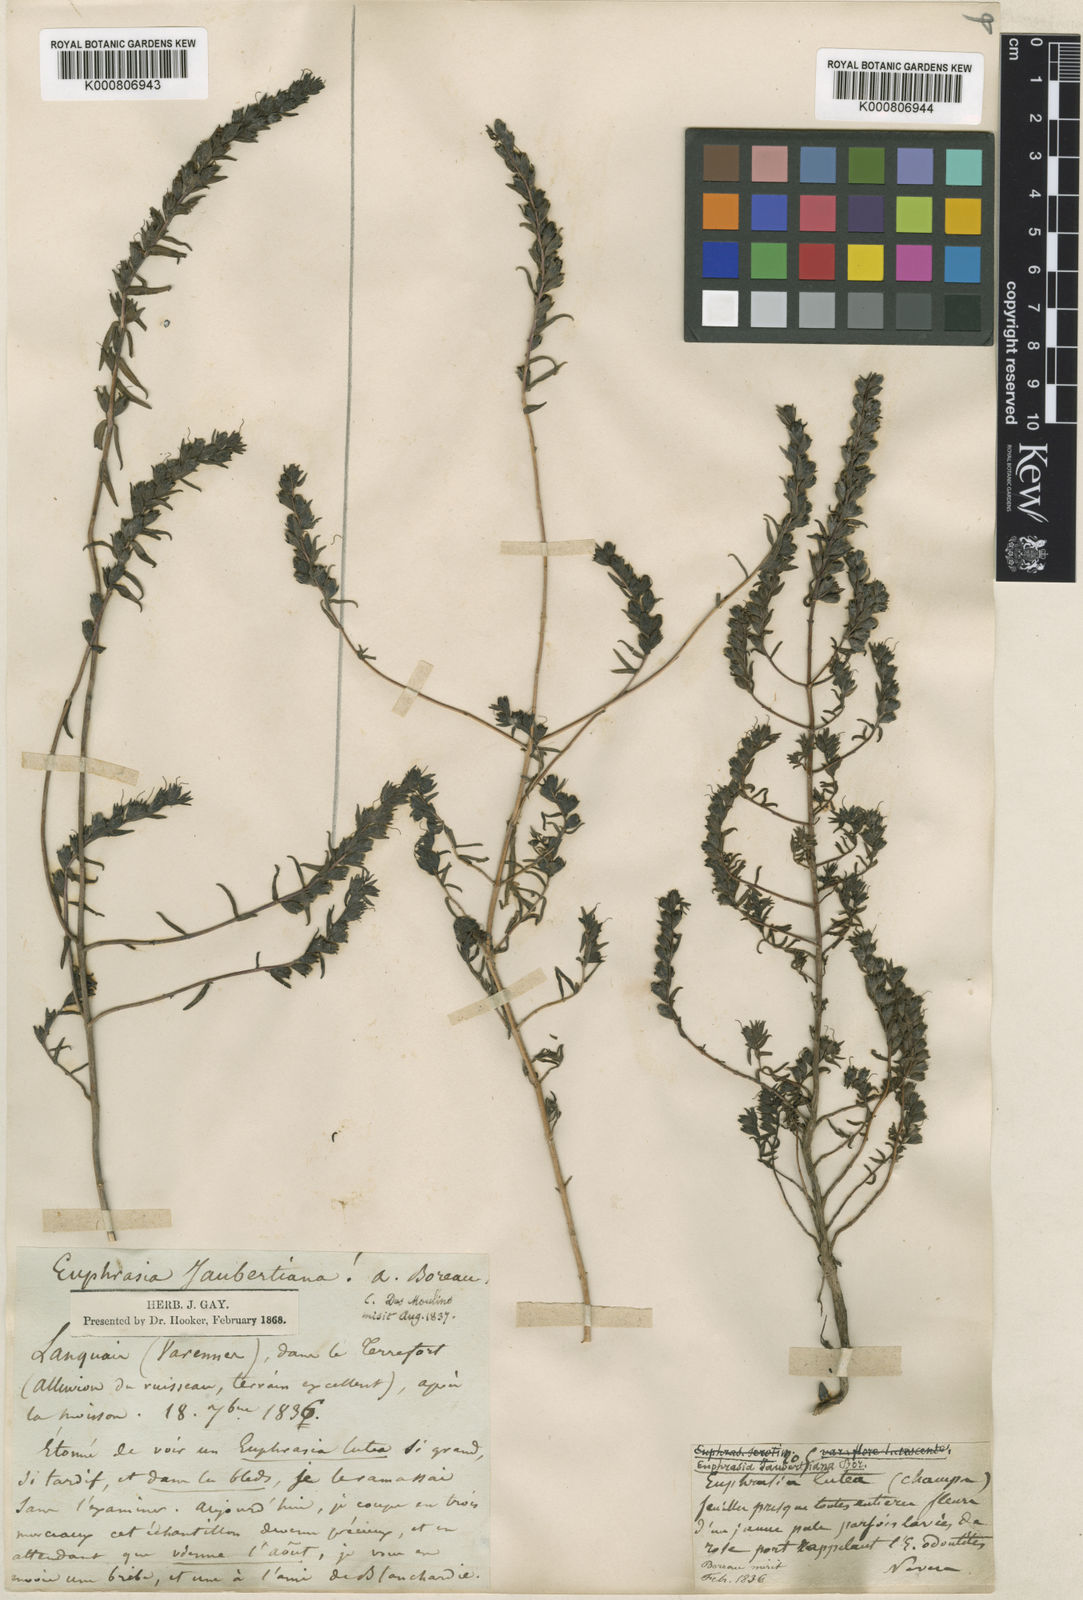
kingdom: Plantae
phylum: Tracheophyta
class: Magnoliopsida
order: Lamiales
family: Orobanchaceae
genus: Odontites
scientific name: Odontites
